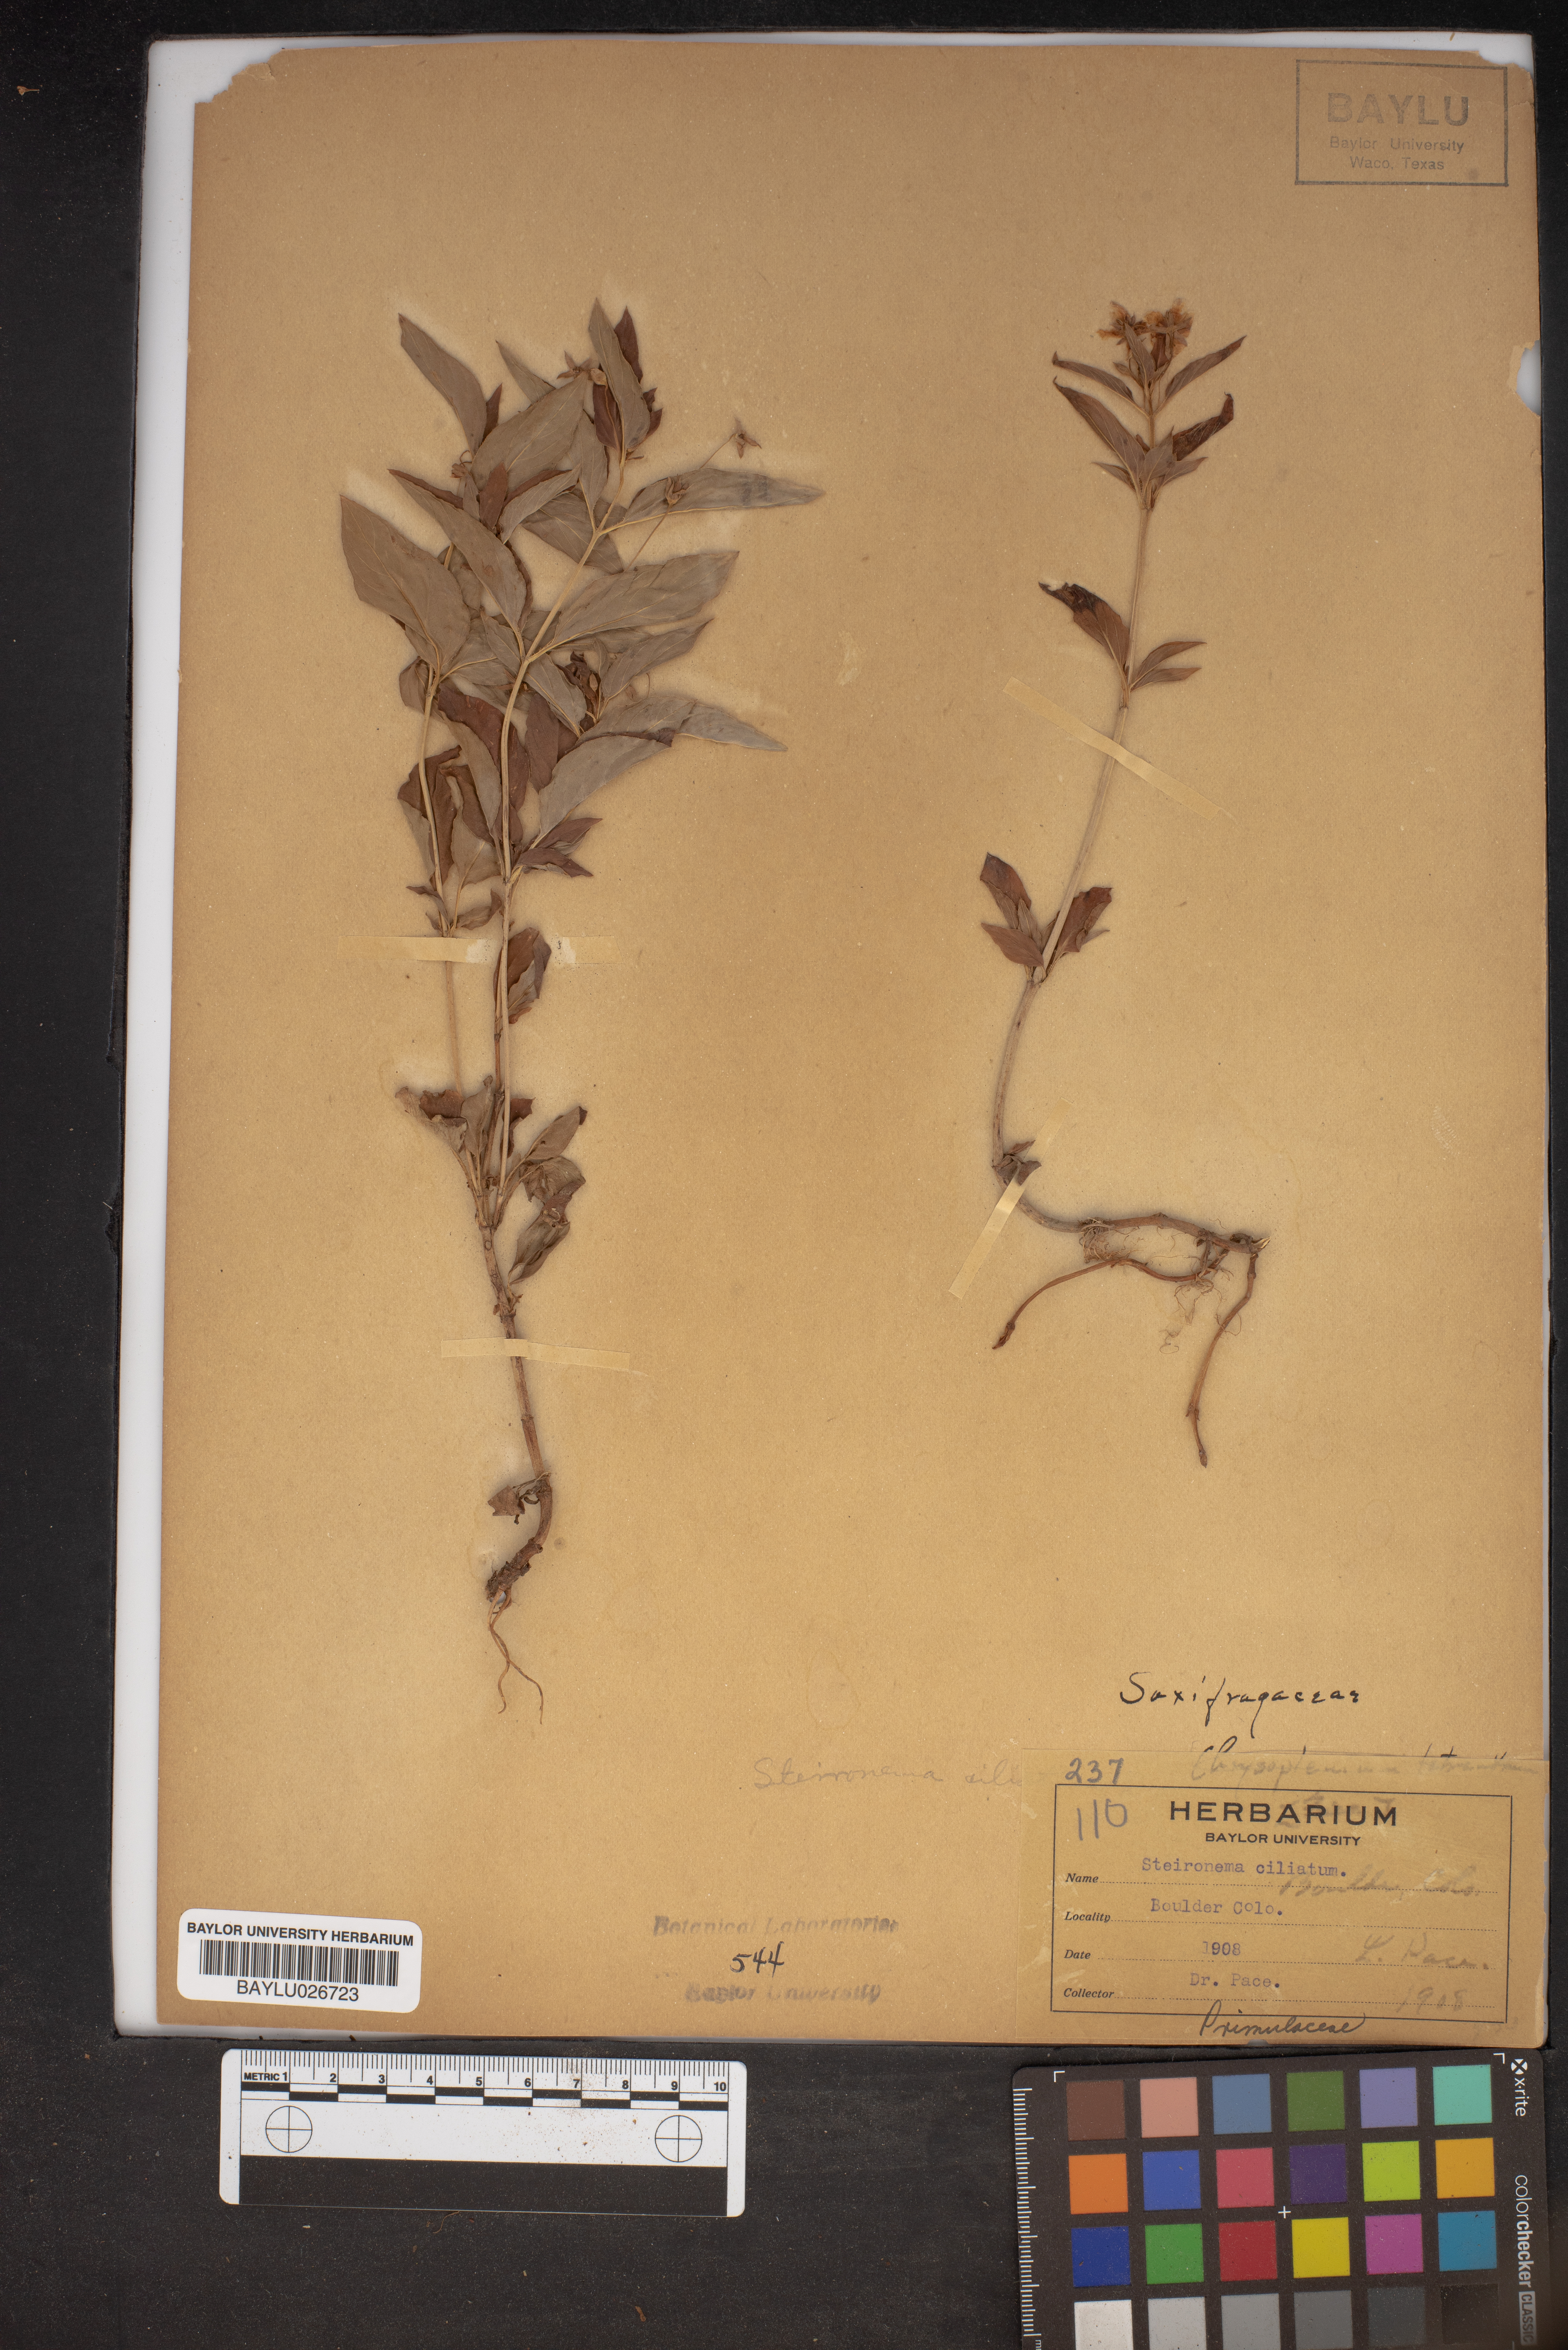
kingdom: Plantae
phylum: Tracheophyta
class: Magnoliopsida
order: Ericales
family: Primulaceae
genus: Lysimachia
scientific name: Lysimachia ciliata
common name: Fringed loosestrife
